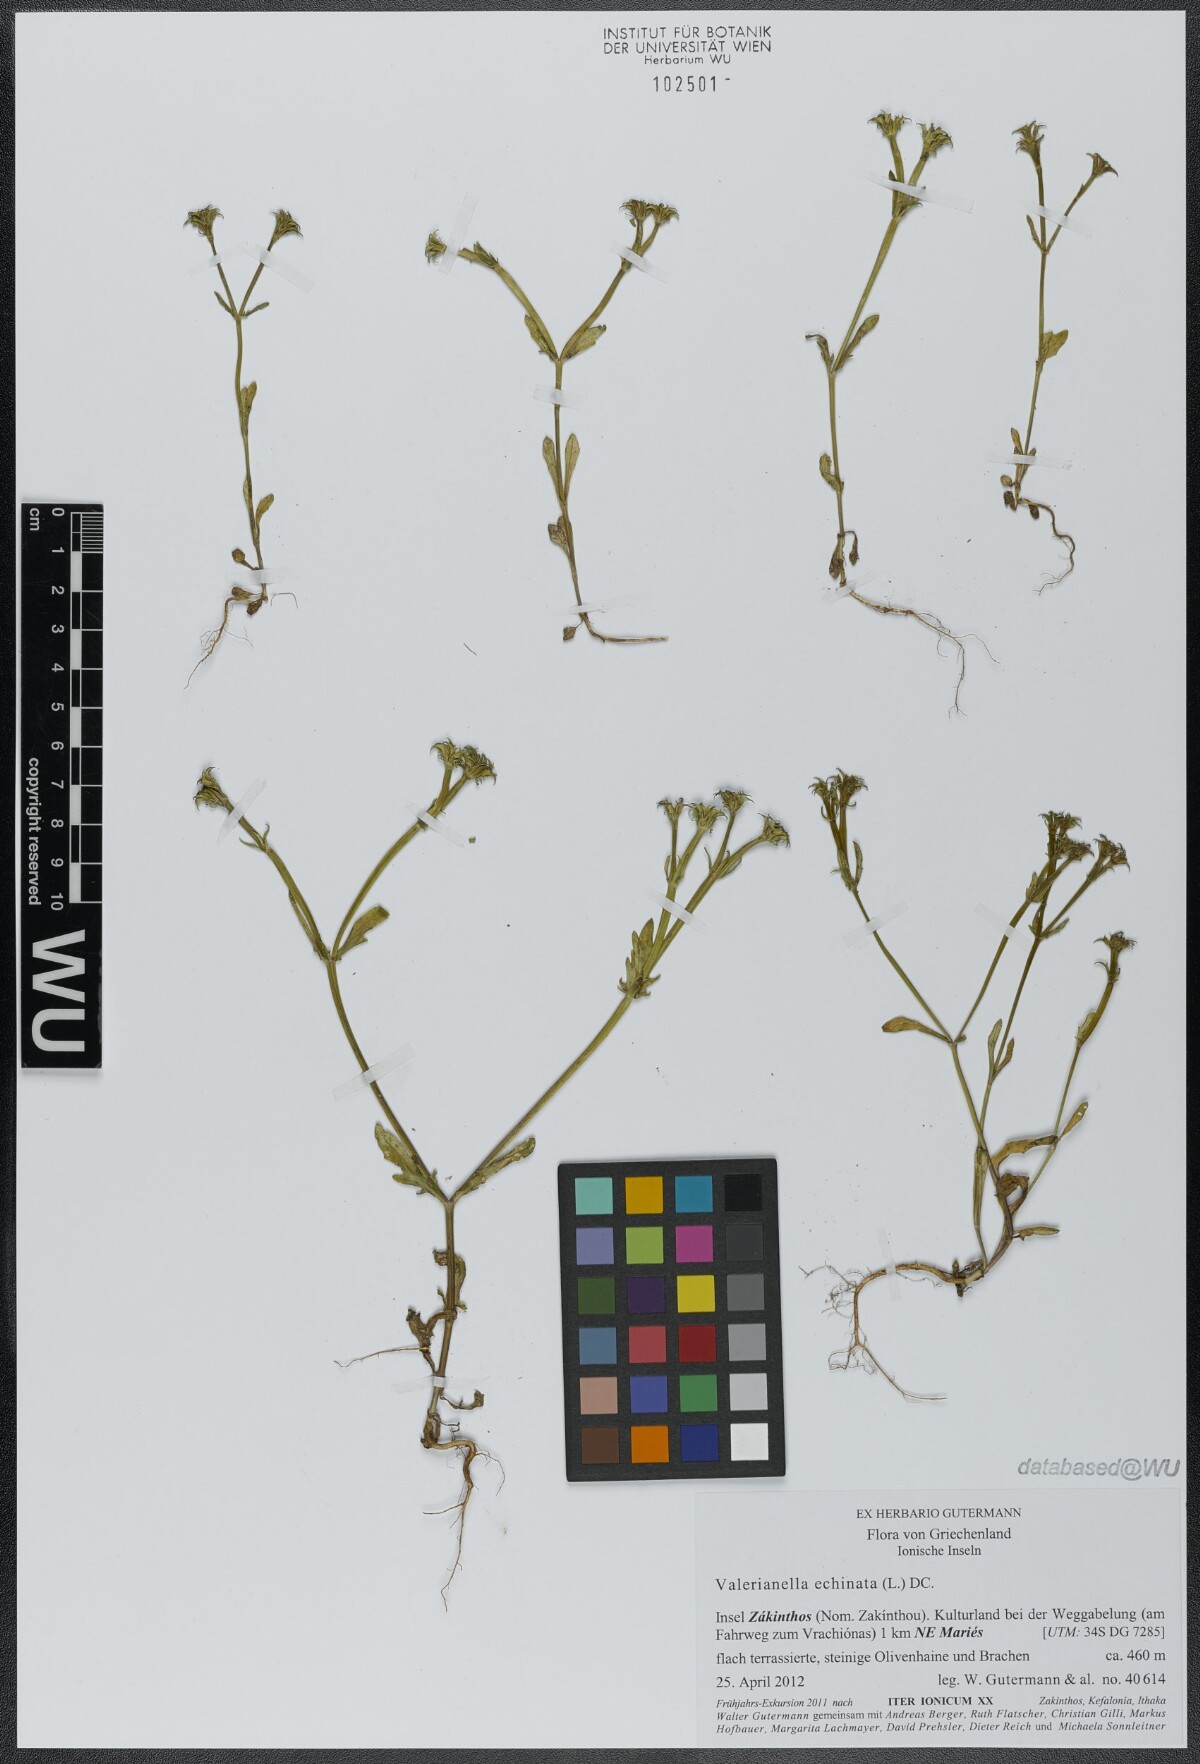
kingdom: Plantae
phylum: Tracheophyta
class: Magnoliopsida
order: Dipsacales
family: Caprifoliaceae
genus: Valerianella
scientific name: Valerianella echinata
